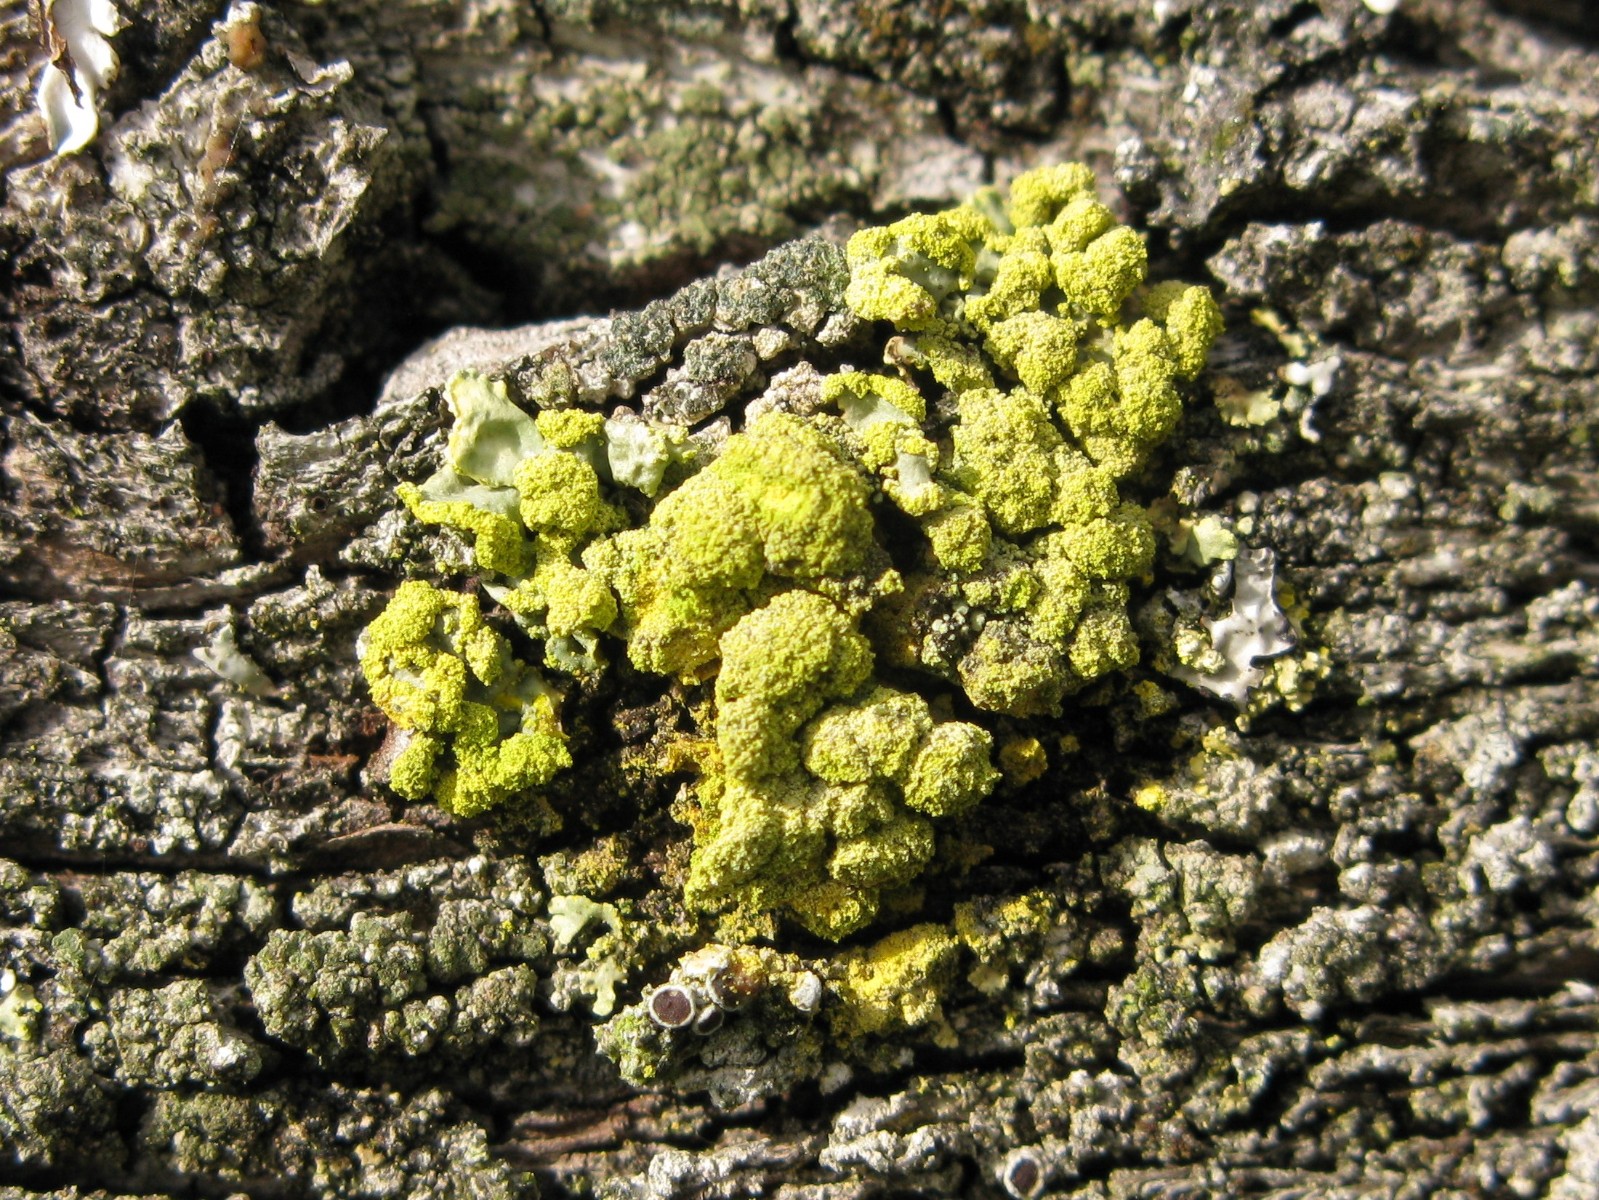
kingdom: Fungi
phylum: Ascomycota
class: Lecanoromycetes
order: Lecanorales
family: Parmeliaceae
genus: Vulpicida
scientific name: Vulpicida pinastri
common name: gul kruslav
